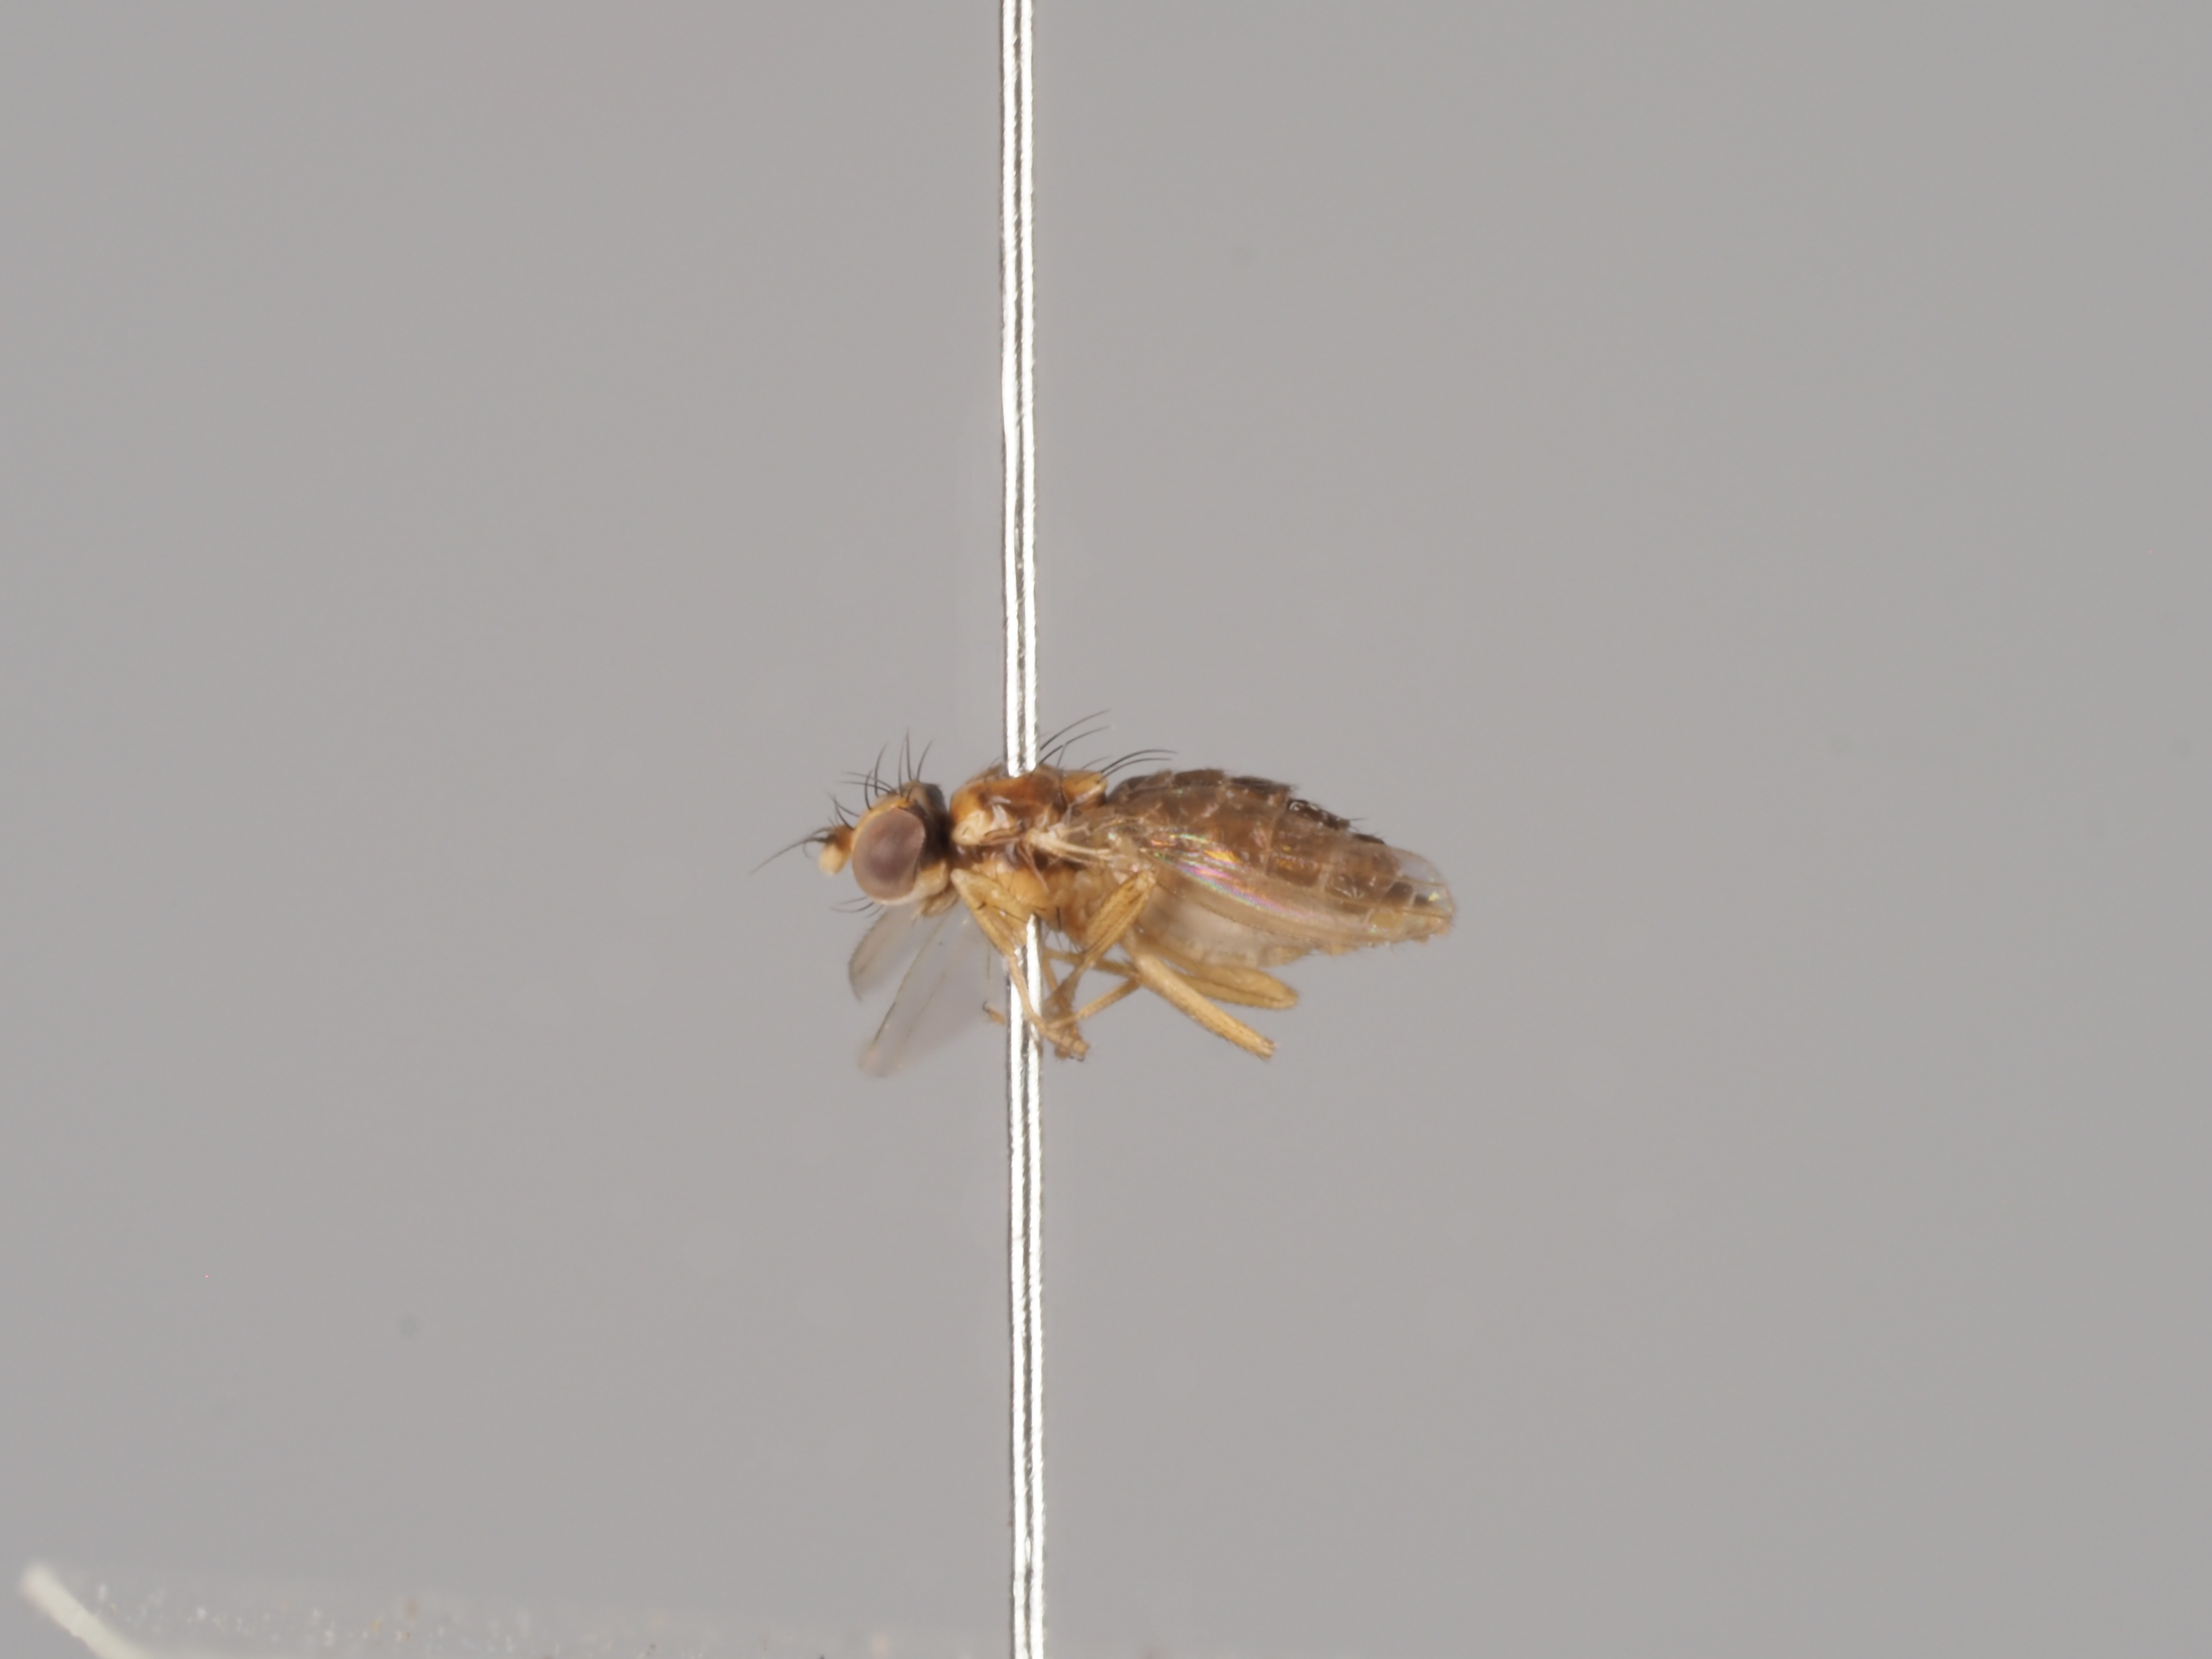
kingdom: Animalia
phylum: Arthropoda
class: Insecta
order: Diptera
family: Anthomyzidae
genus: Stiphrosoma
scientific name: Stiphrosoma laetum
